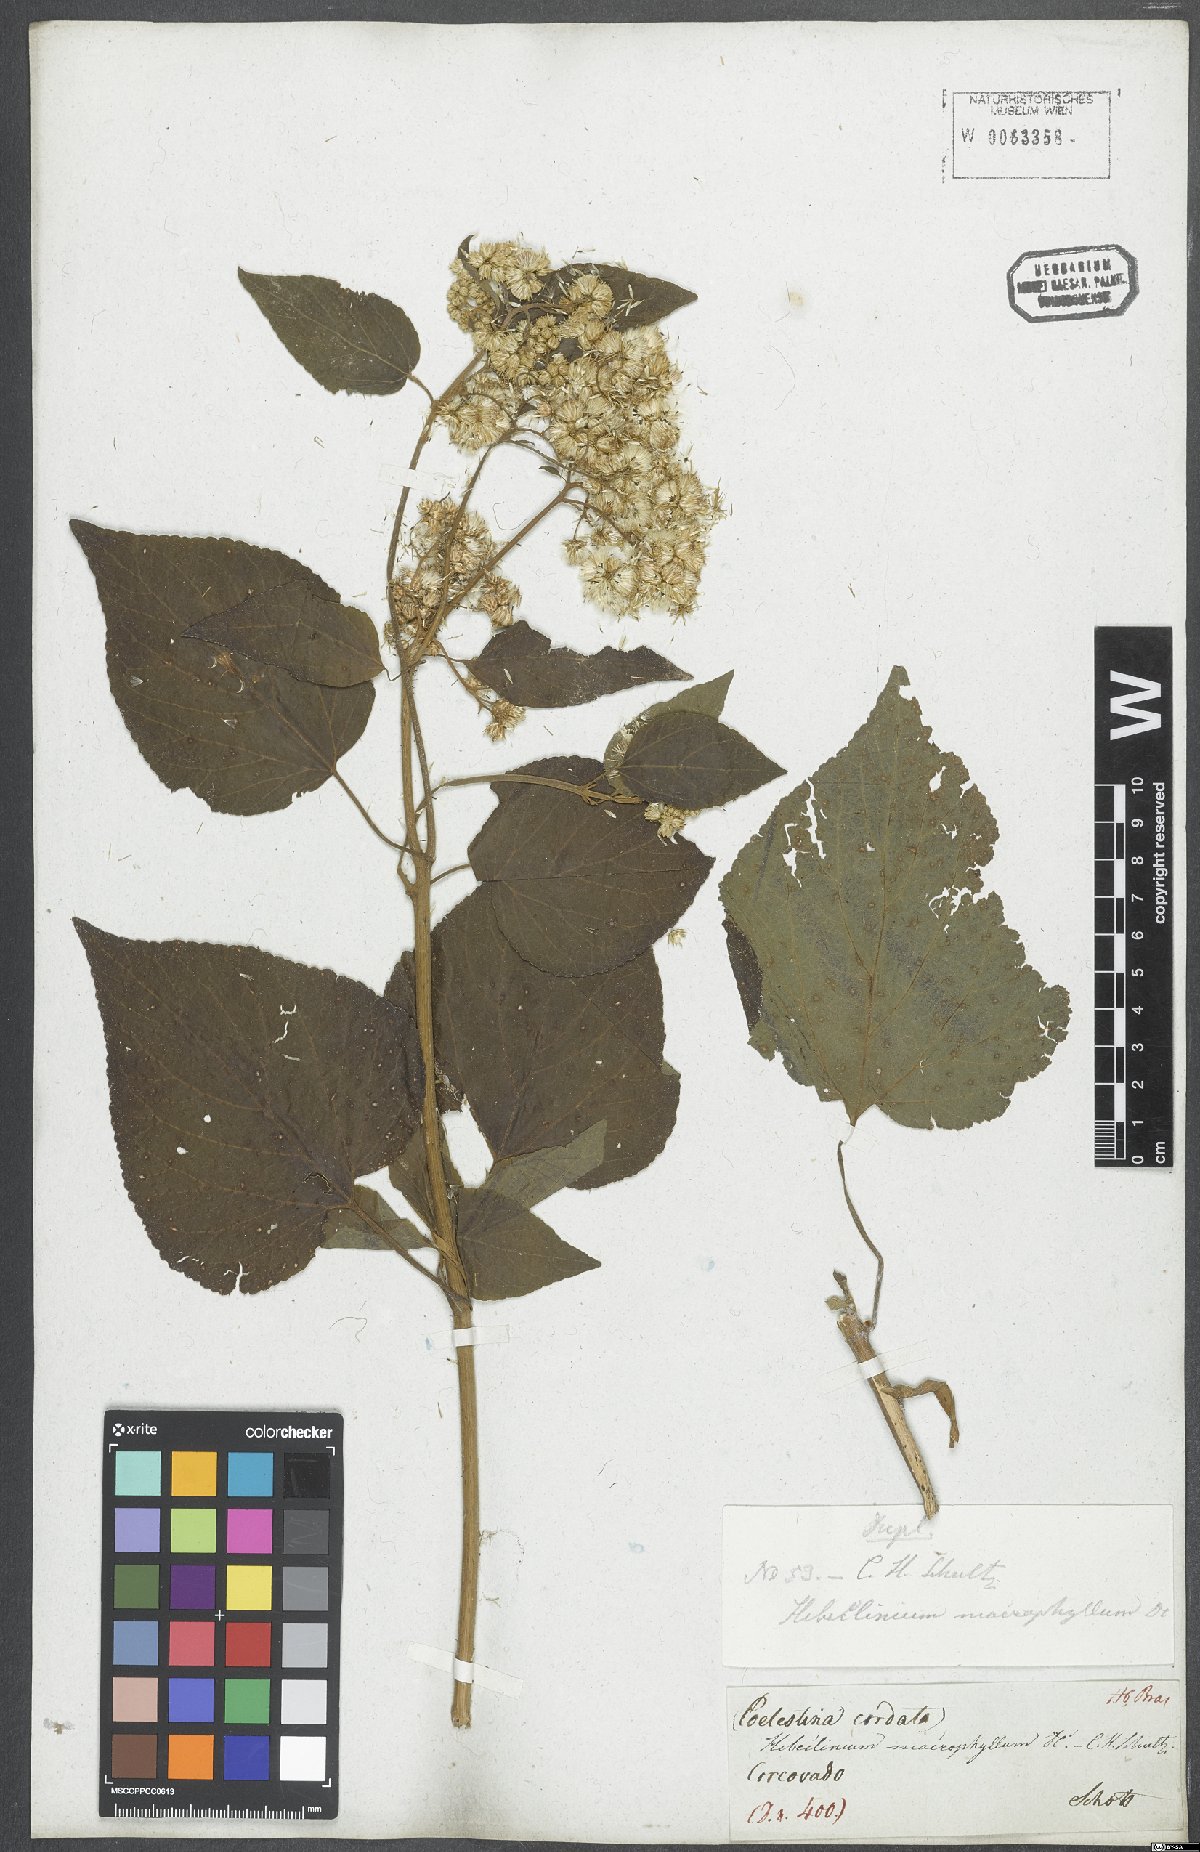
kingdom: Plantae
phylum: Tracheophyta
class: Magnoliopsida
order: Asterales
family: Asteraceae
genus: Hebeclinium
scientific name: Hebeclinium macrophyllum
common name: Largeleaf thoroughwort
